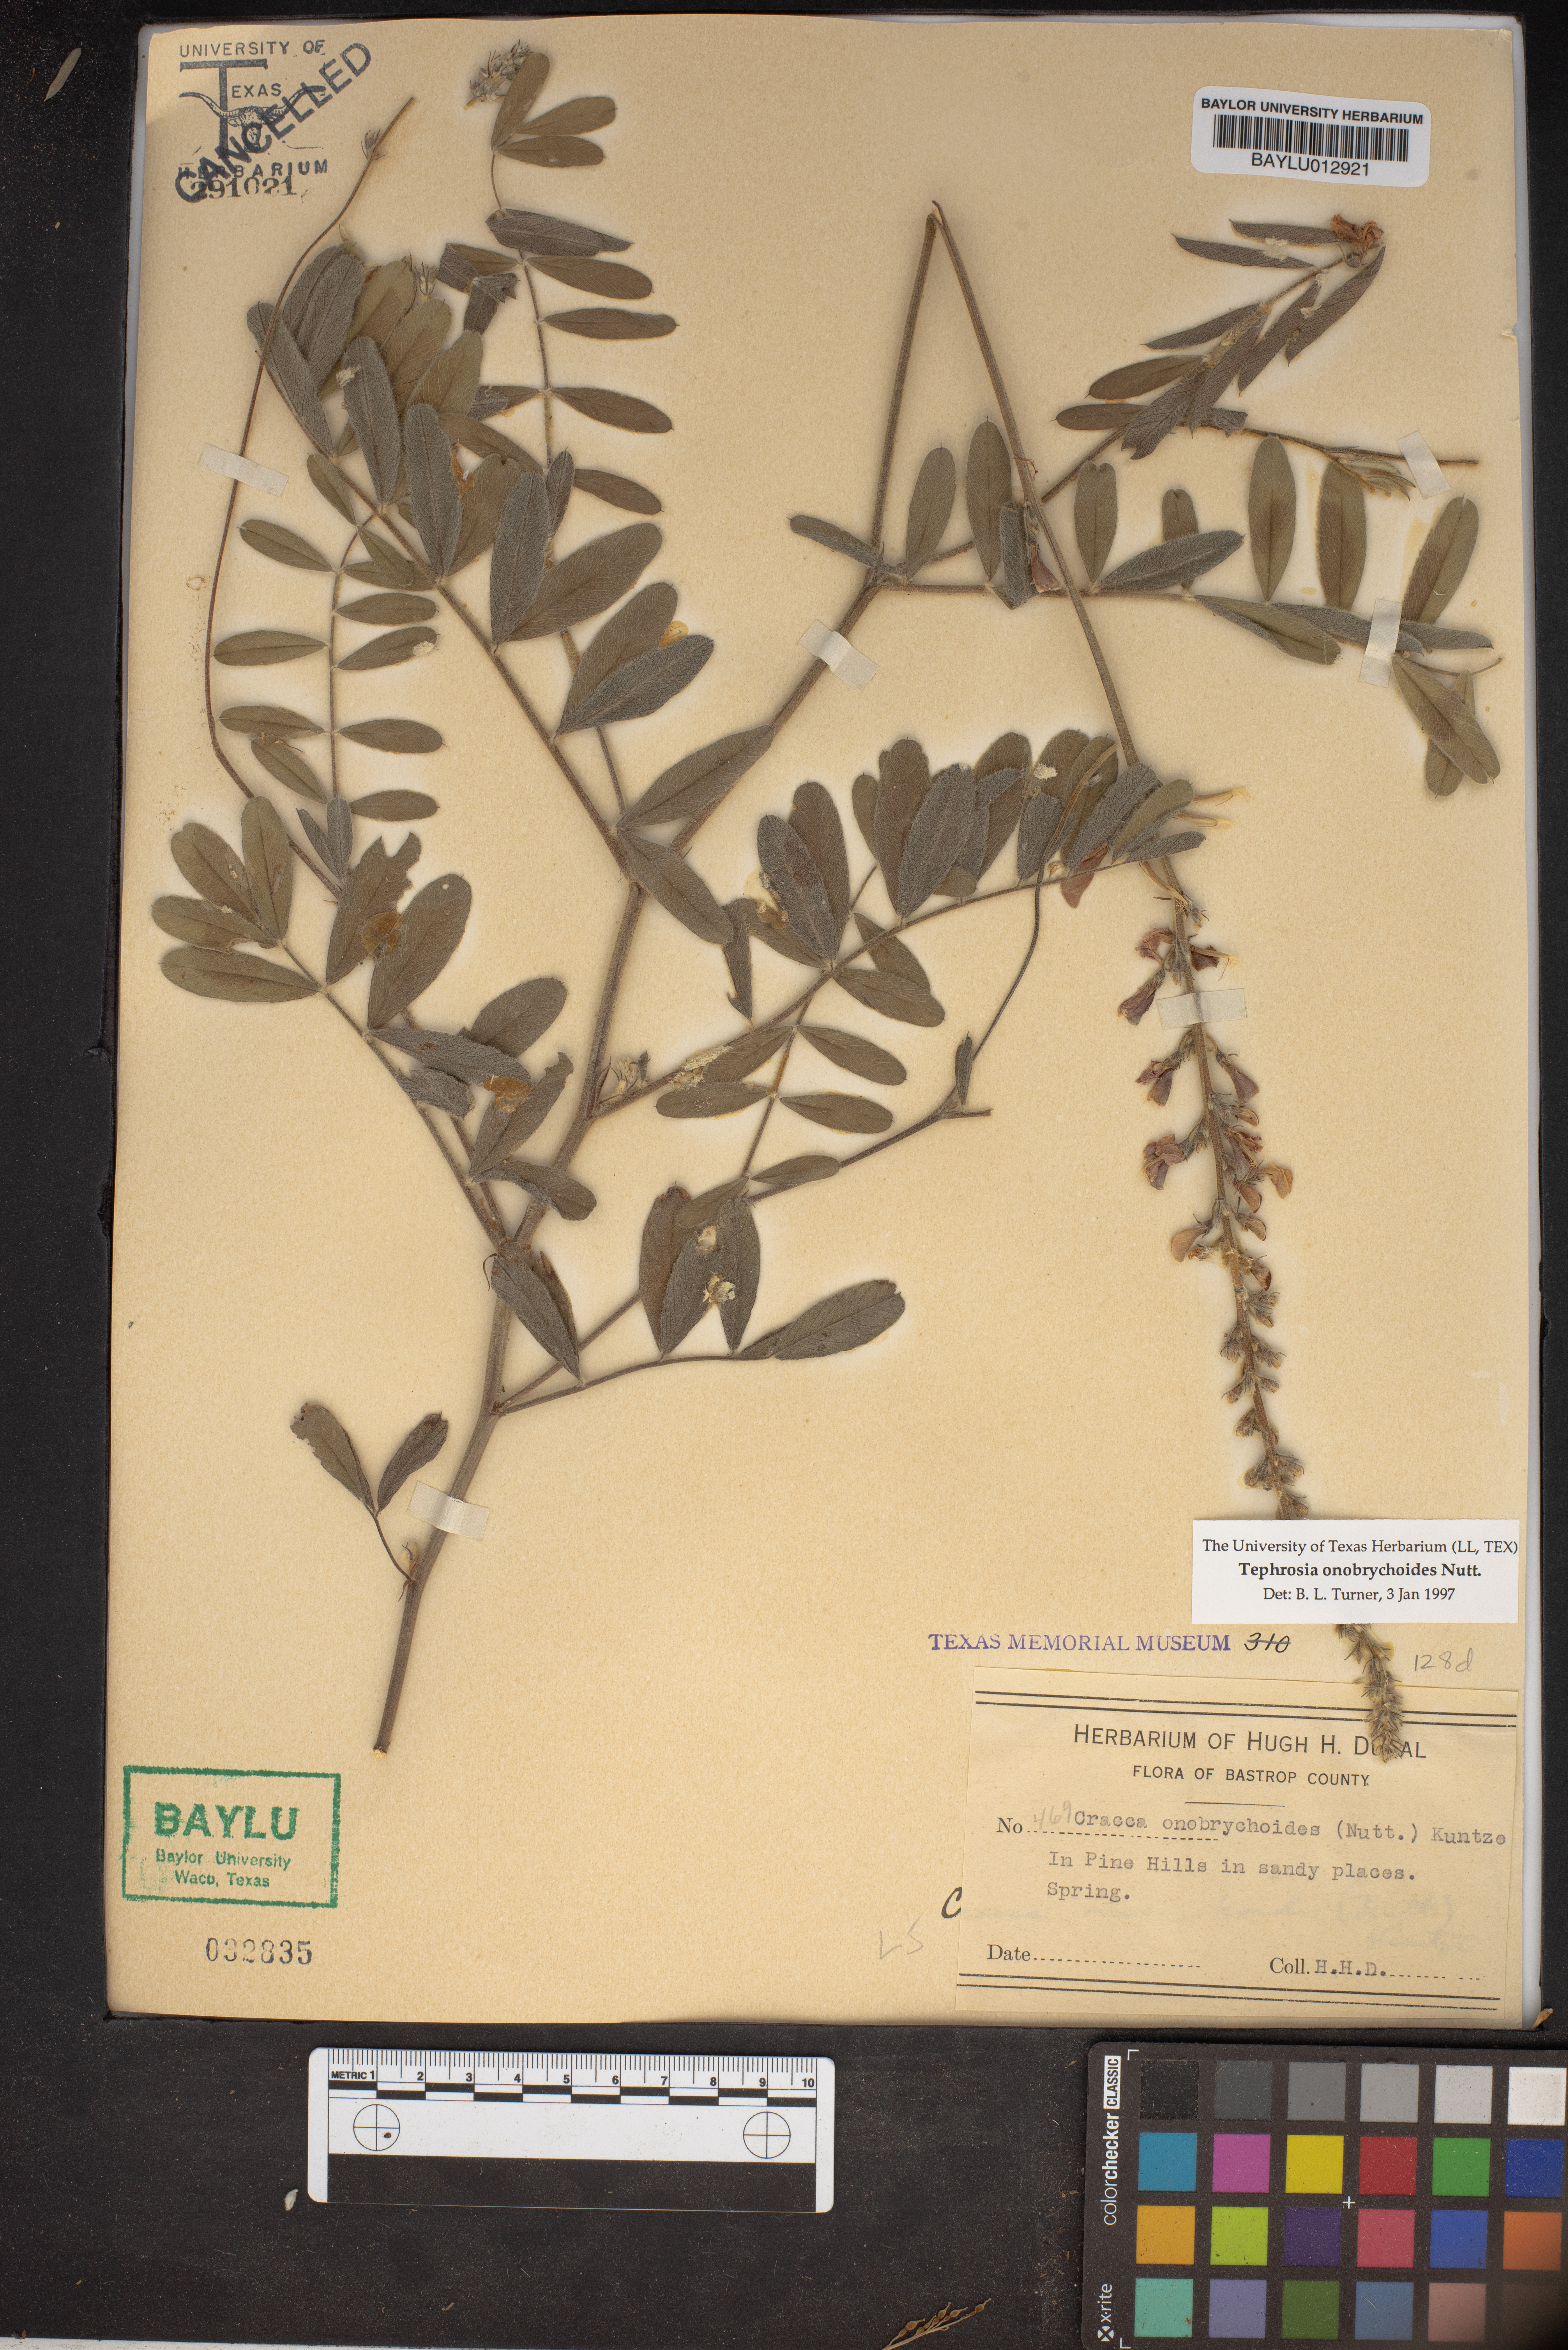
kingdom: Plantae
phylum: Tracheophyta
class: Magnoliopsida
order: Fabales
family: Fabaceae
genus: Tephrosia
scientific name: Tephrosia onobrychoides
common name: Multi-bloom hoary-pea
